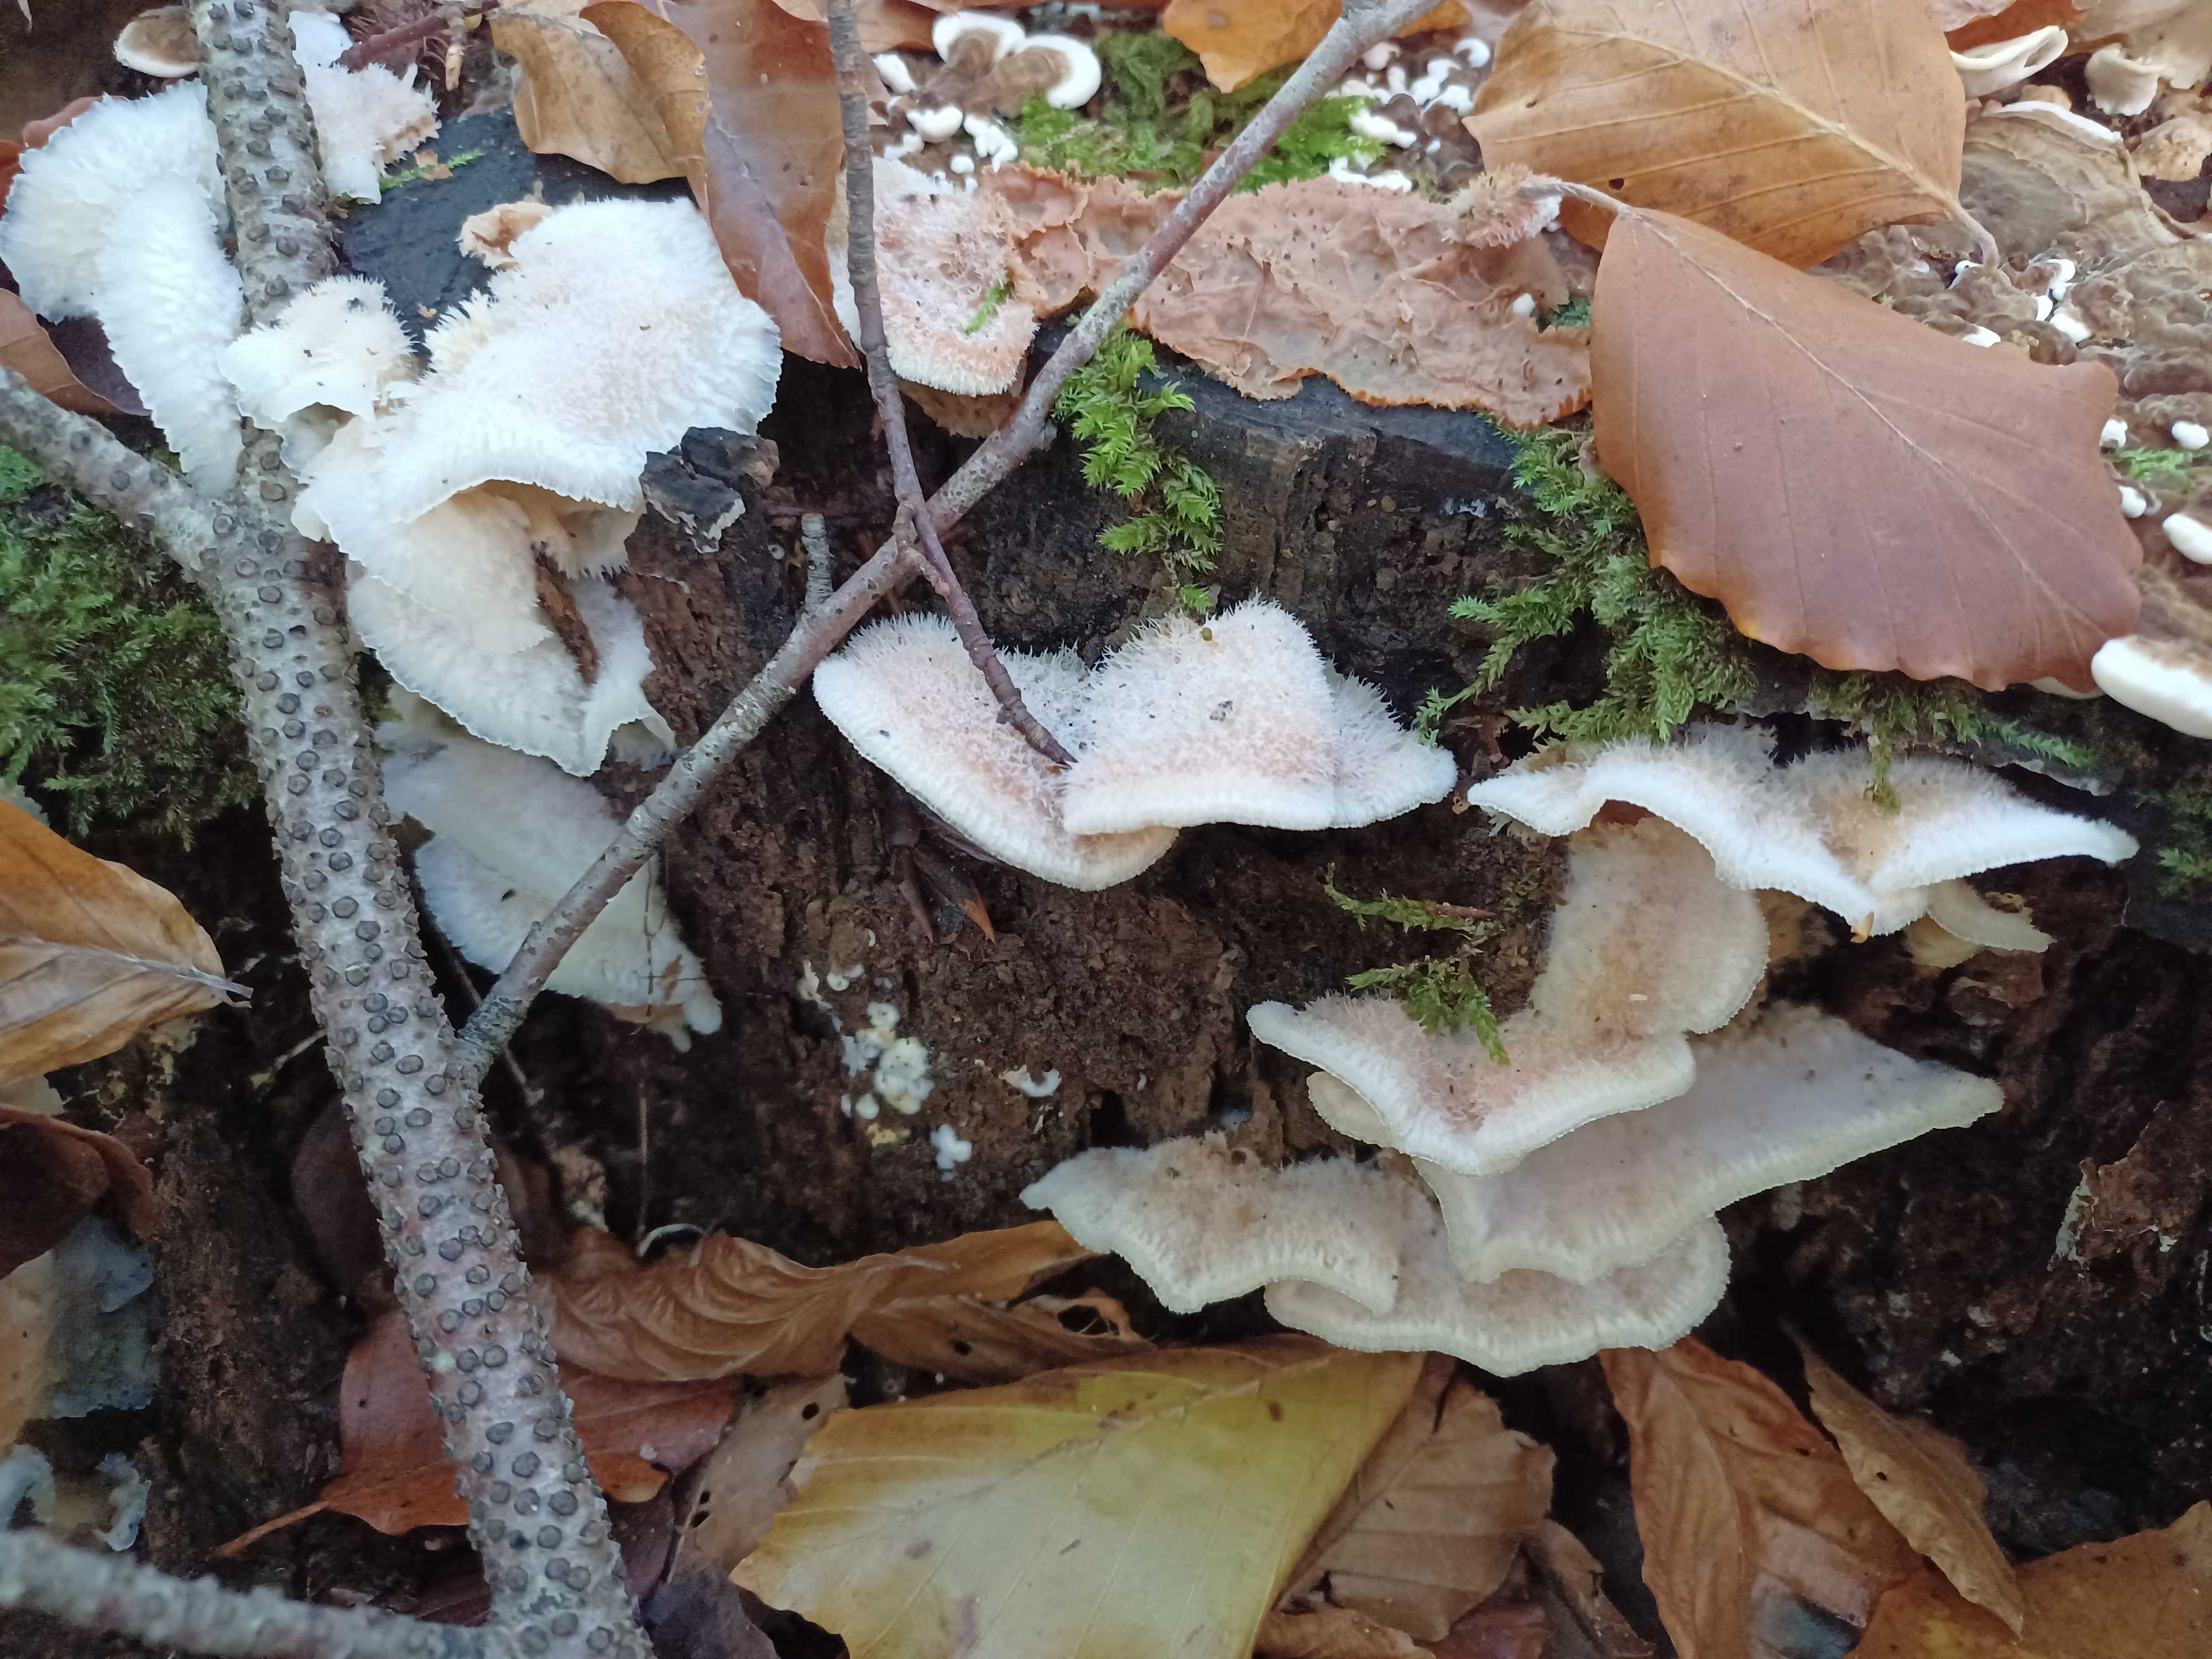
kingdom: Fungi
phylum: Basidiomycota
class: Agaricomycetes
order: Polyporales
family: Meruliaceae
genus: Phlebia
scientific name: Phlebia tremellosa
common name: bævrende åresvamp
